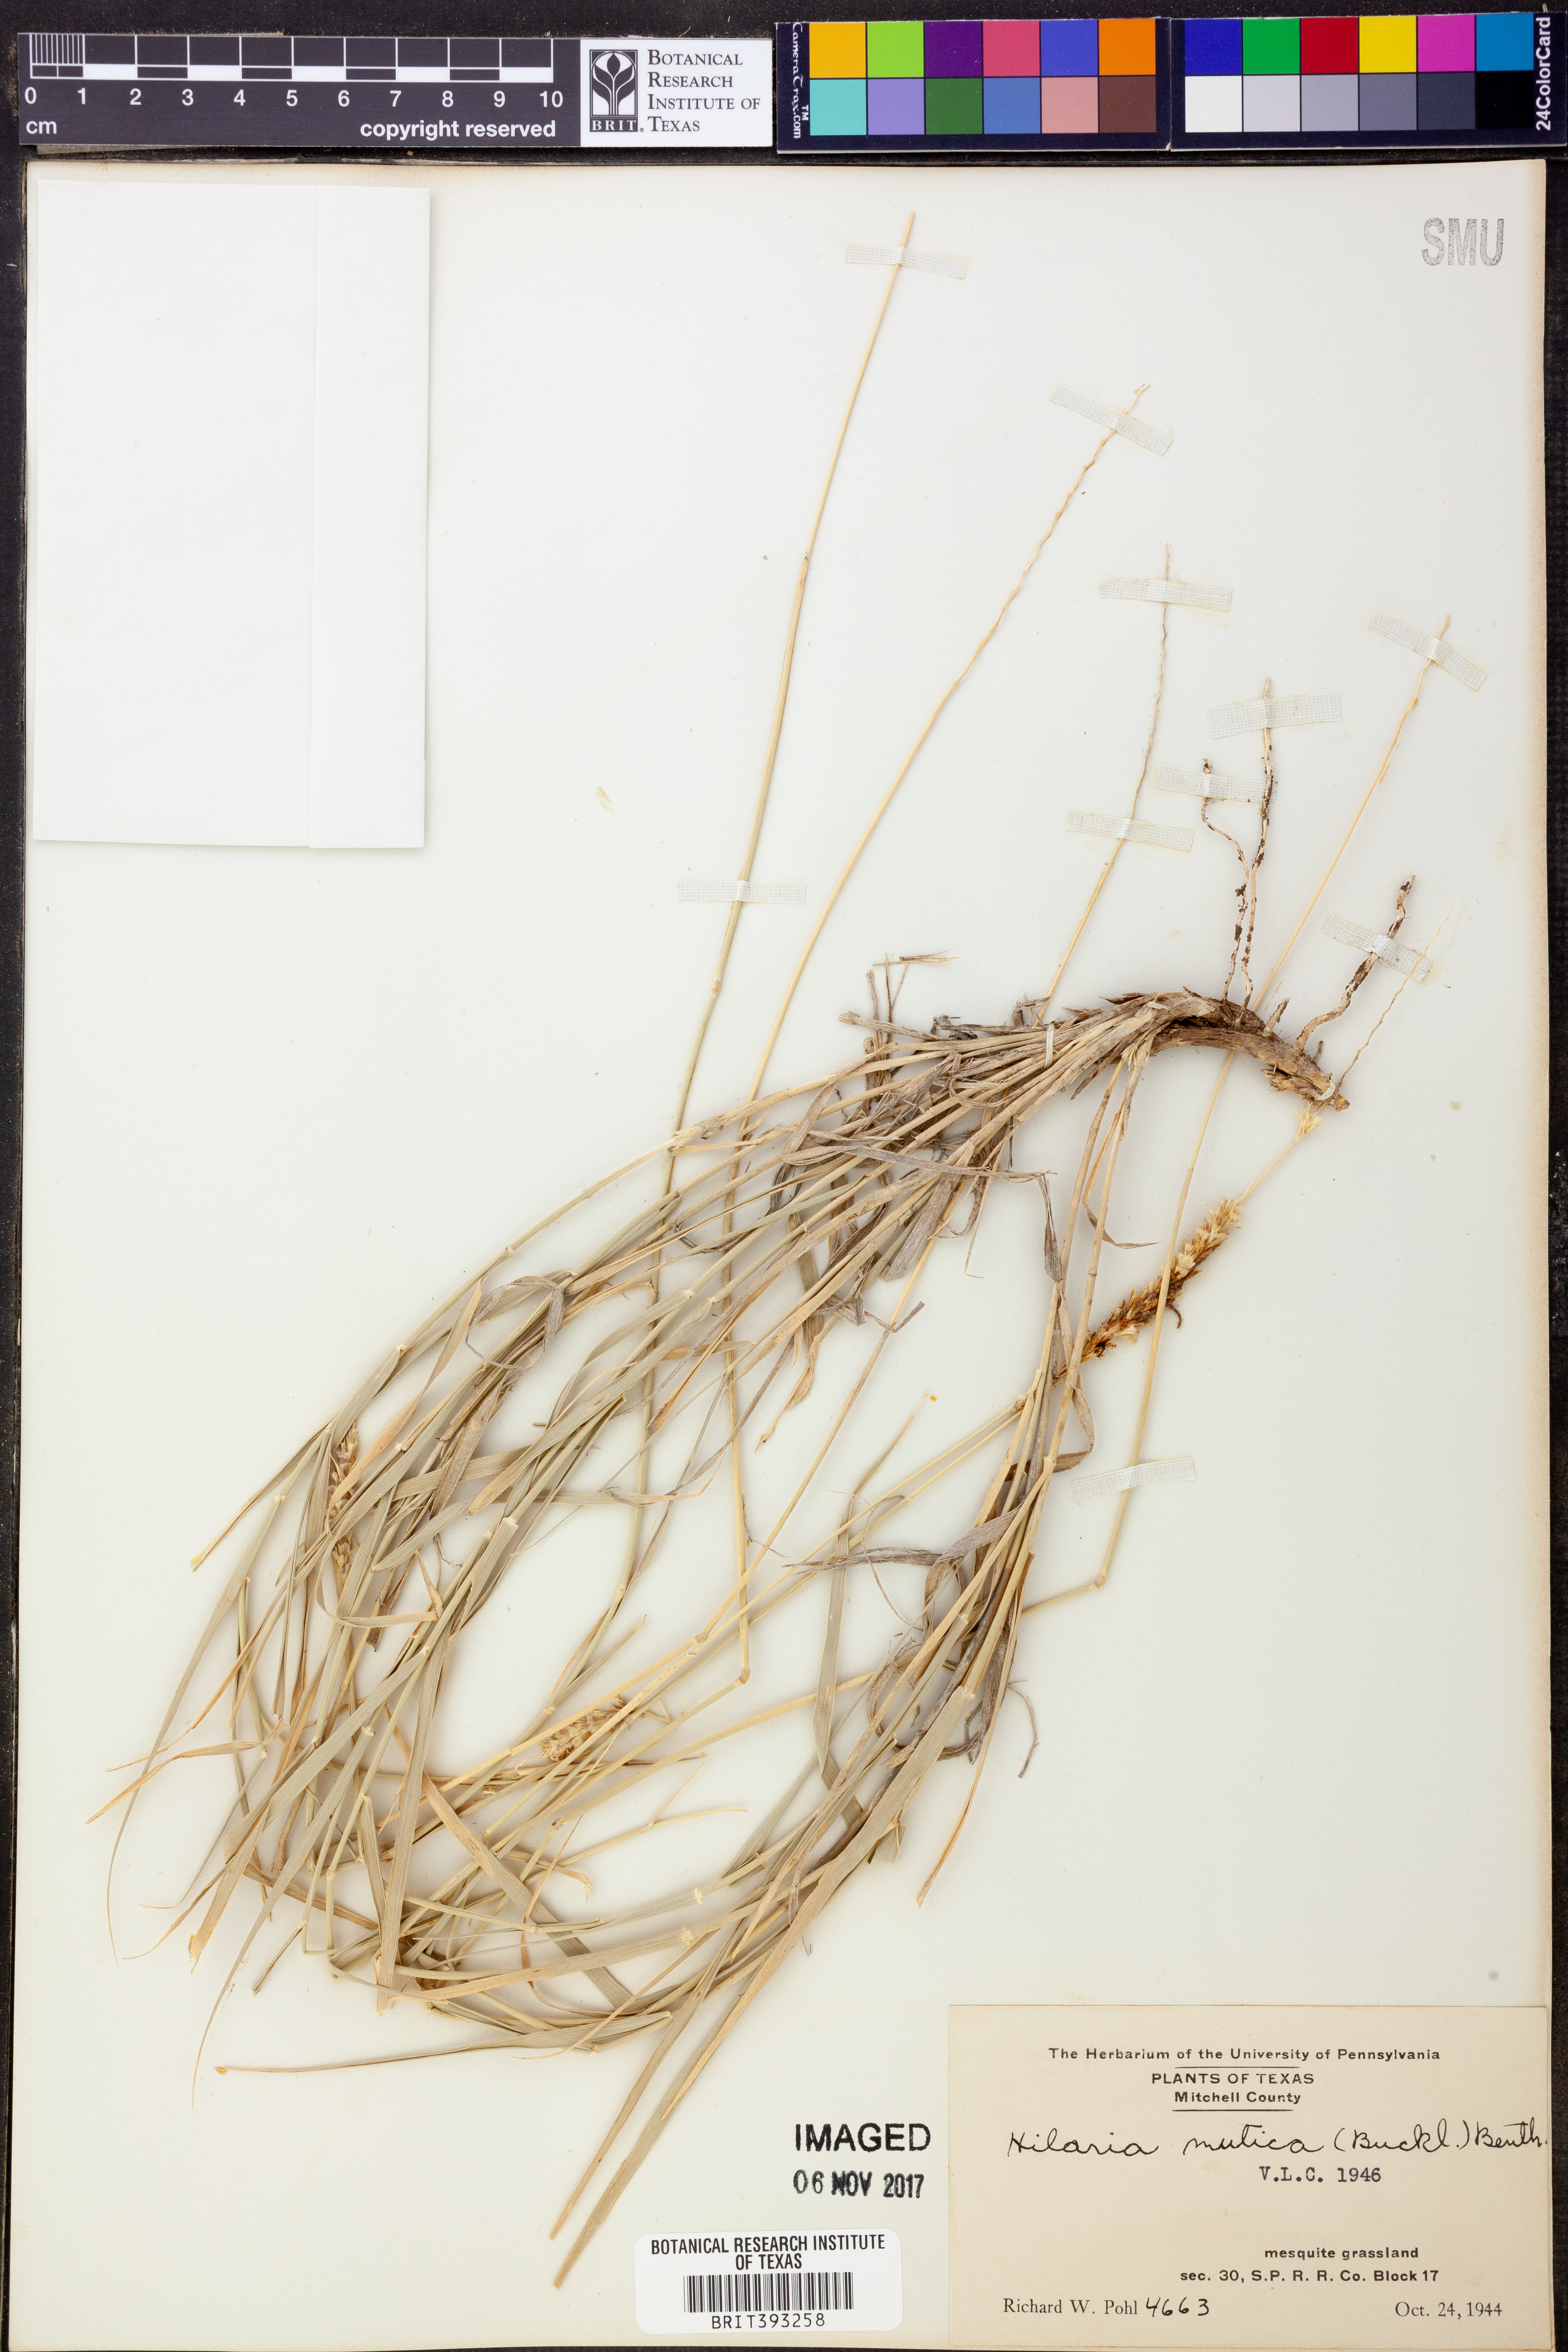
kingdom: Plantae
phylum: Tracheophyta
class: Liliopsida
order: Poales
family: Poaceae
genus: Hilaria
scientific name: Hilaria mutica
